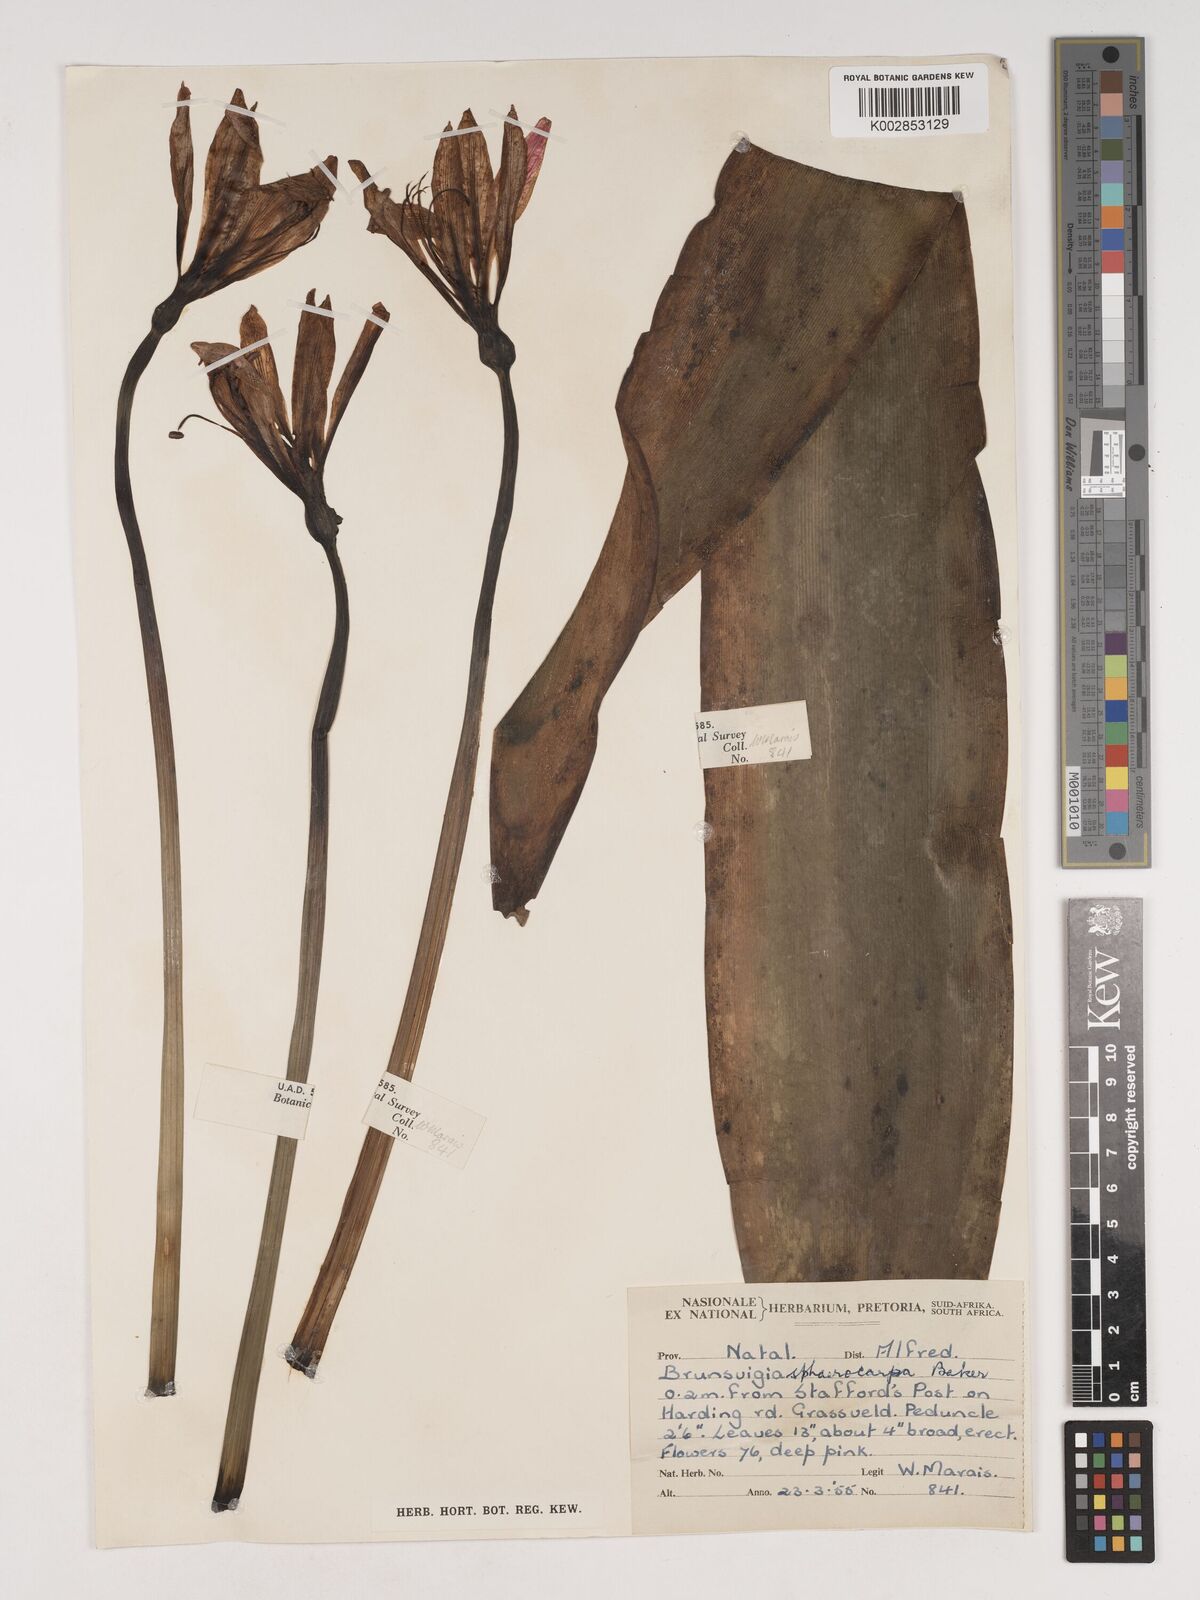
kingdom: Plantae
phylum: Tracheophyta
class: Liliopsida
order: Asparagales
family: Amaryllidaceae
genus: Brunsvigia
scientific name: Brunsvigia grandiflora
